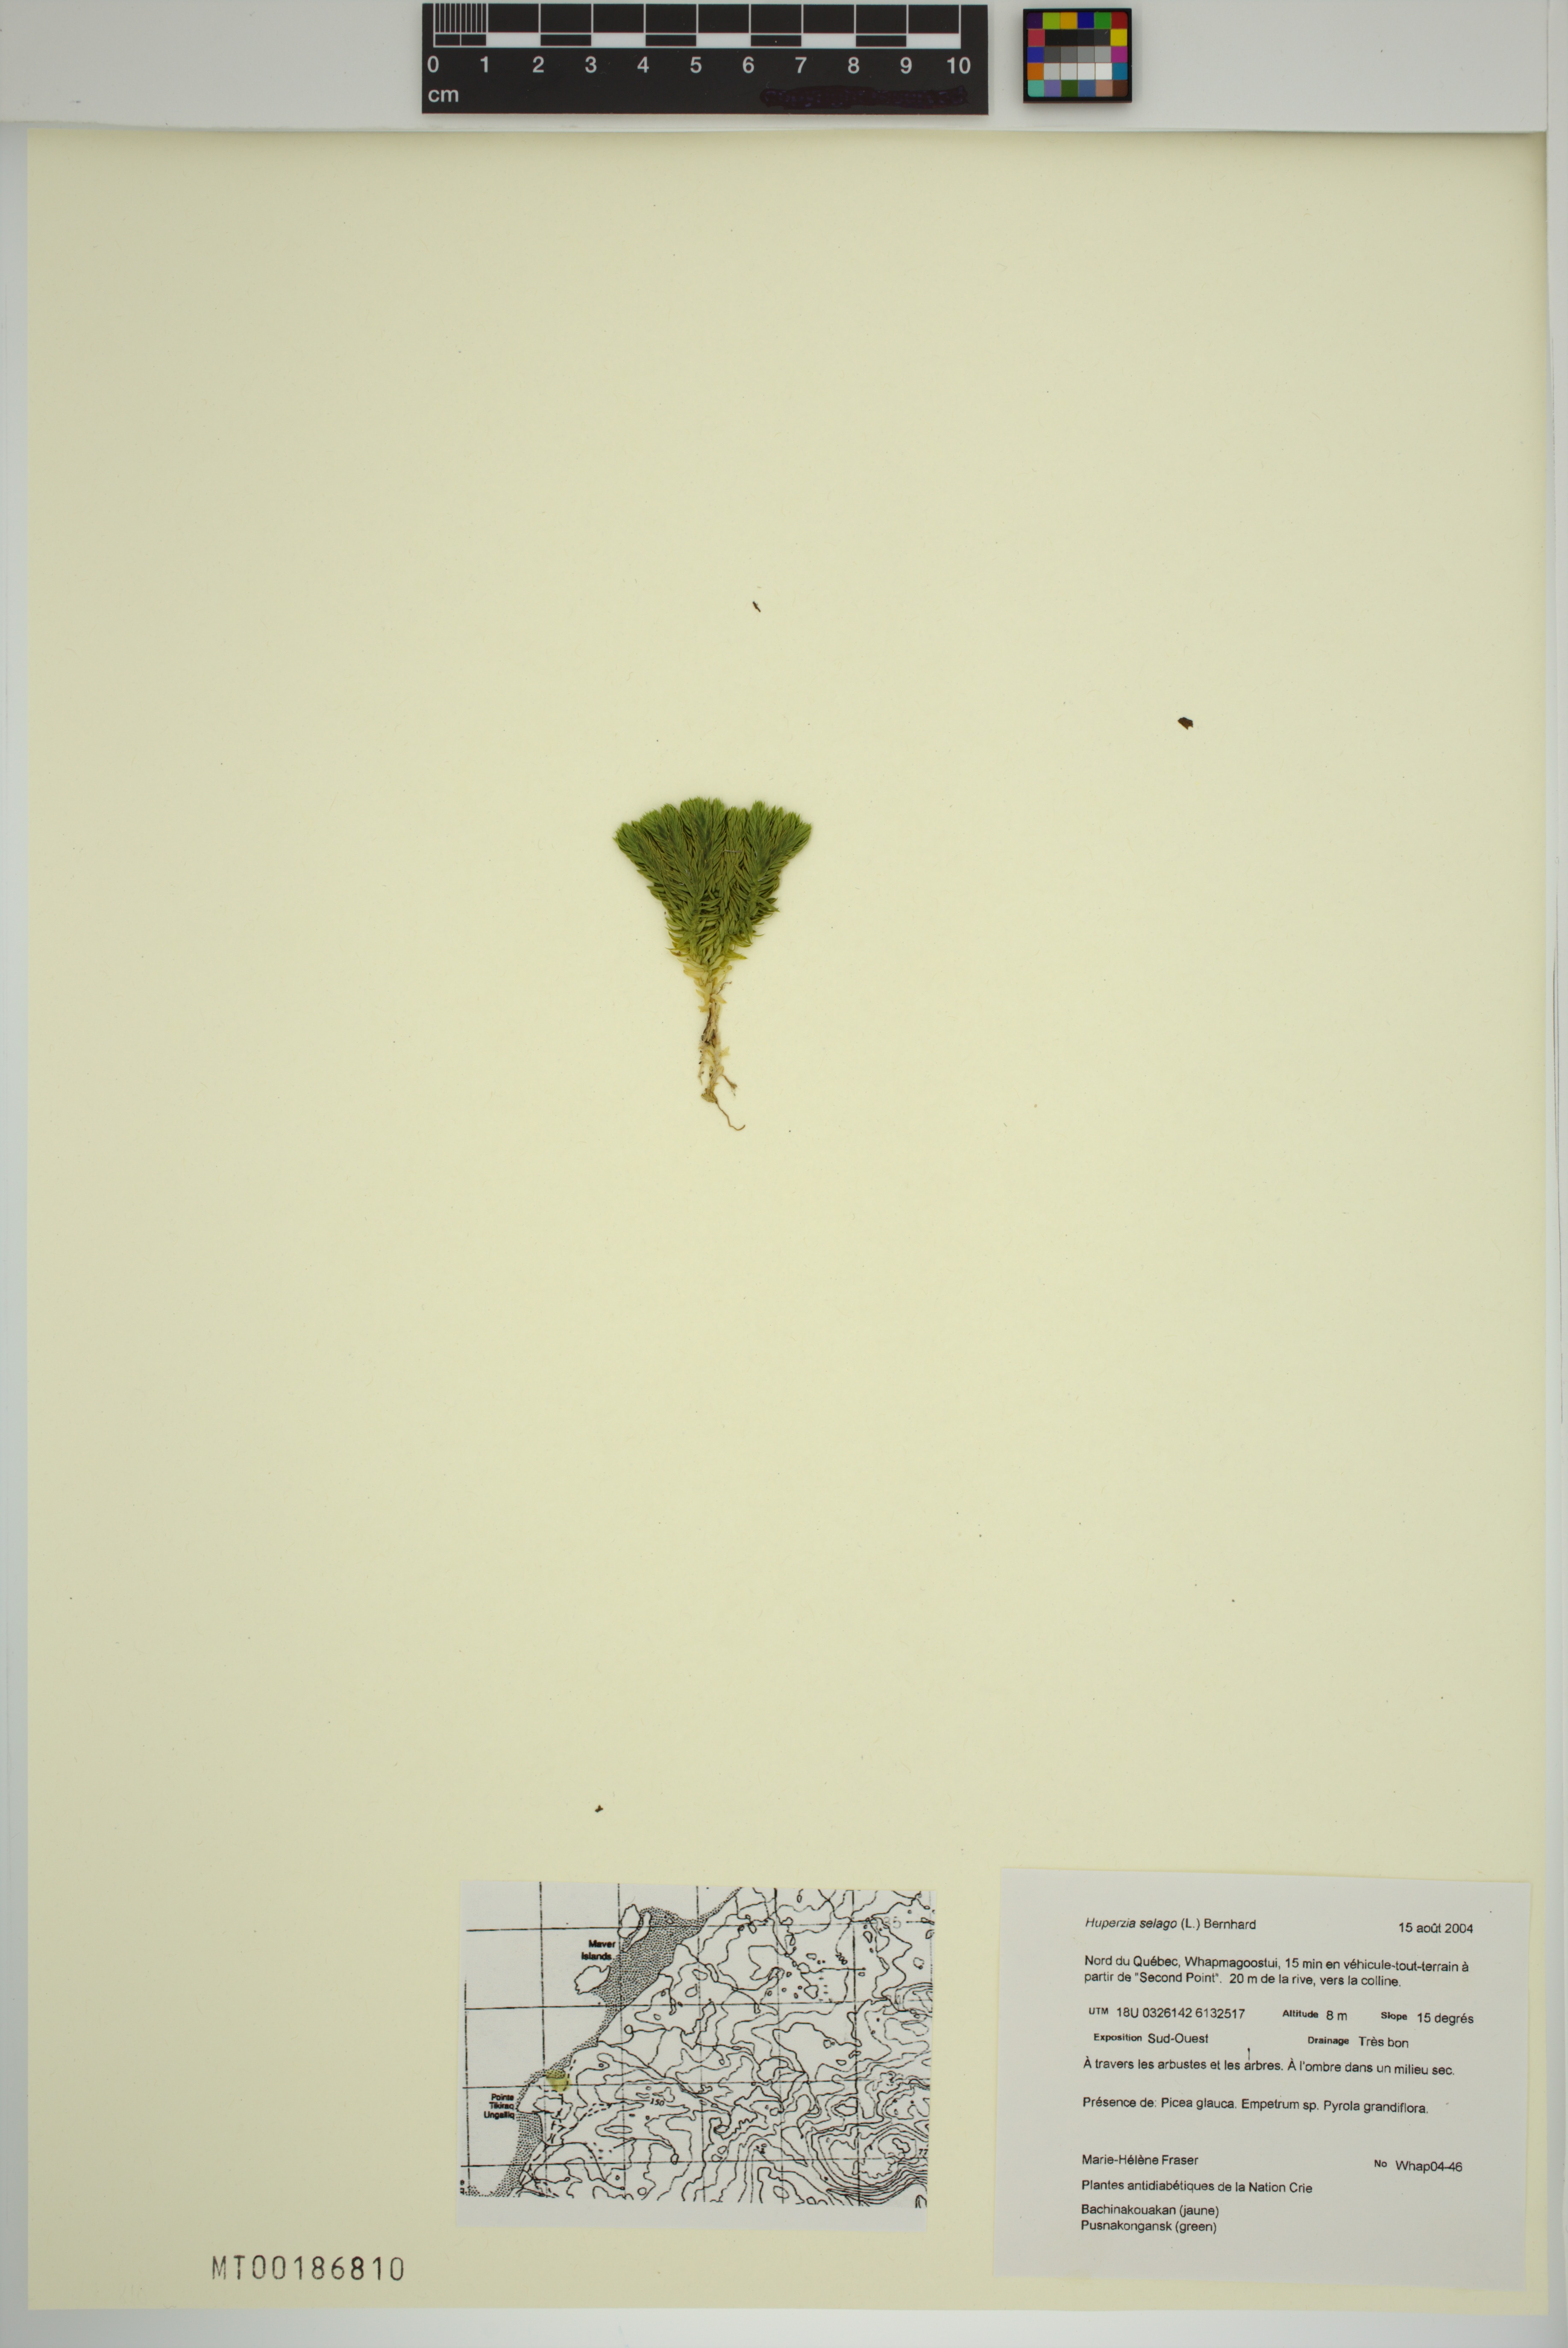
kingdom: Plantae
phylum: Tracheophyta
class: Lycopodiopsida
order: Lycopodiales
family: Lycopodiaceae
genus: Huperzia
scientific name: Huperzia selago
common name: Northern firmoss
